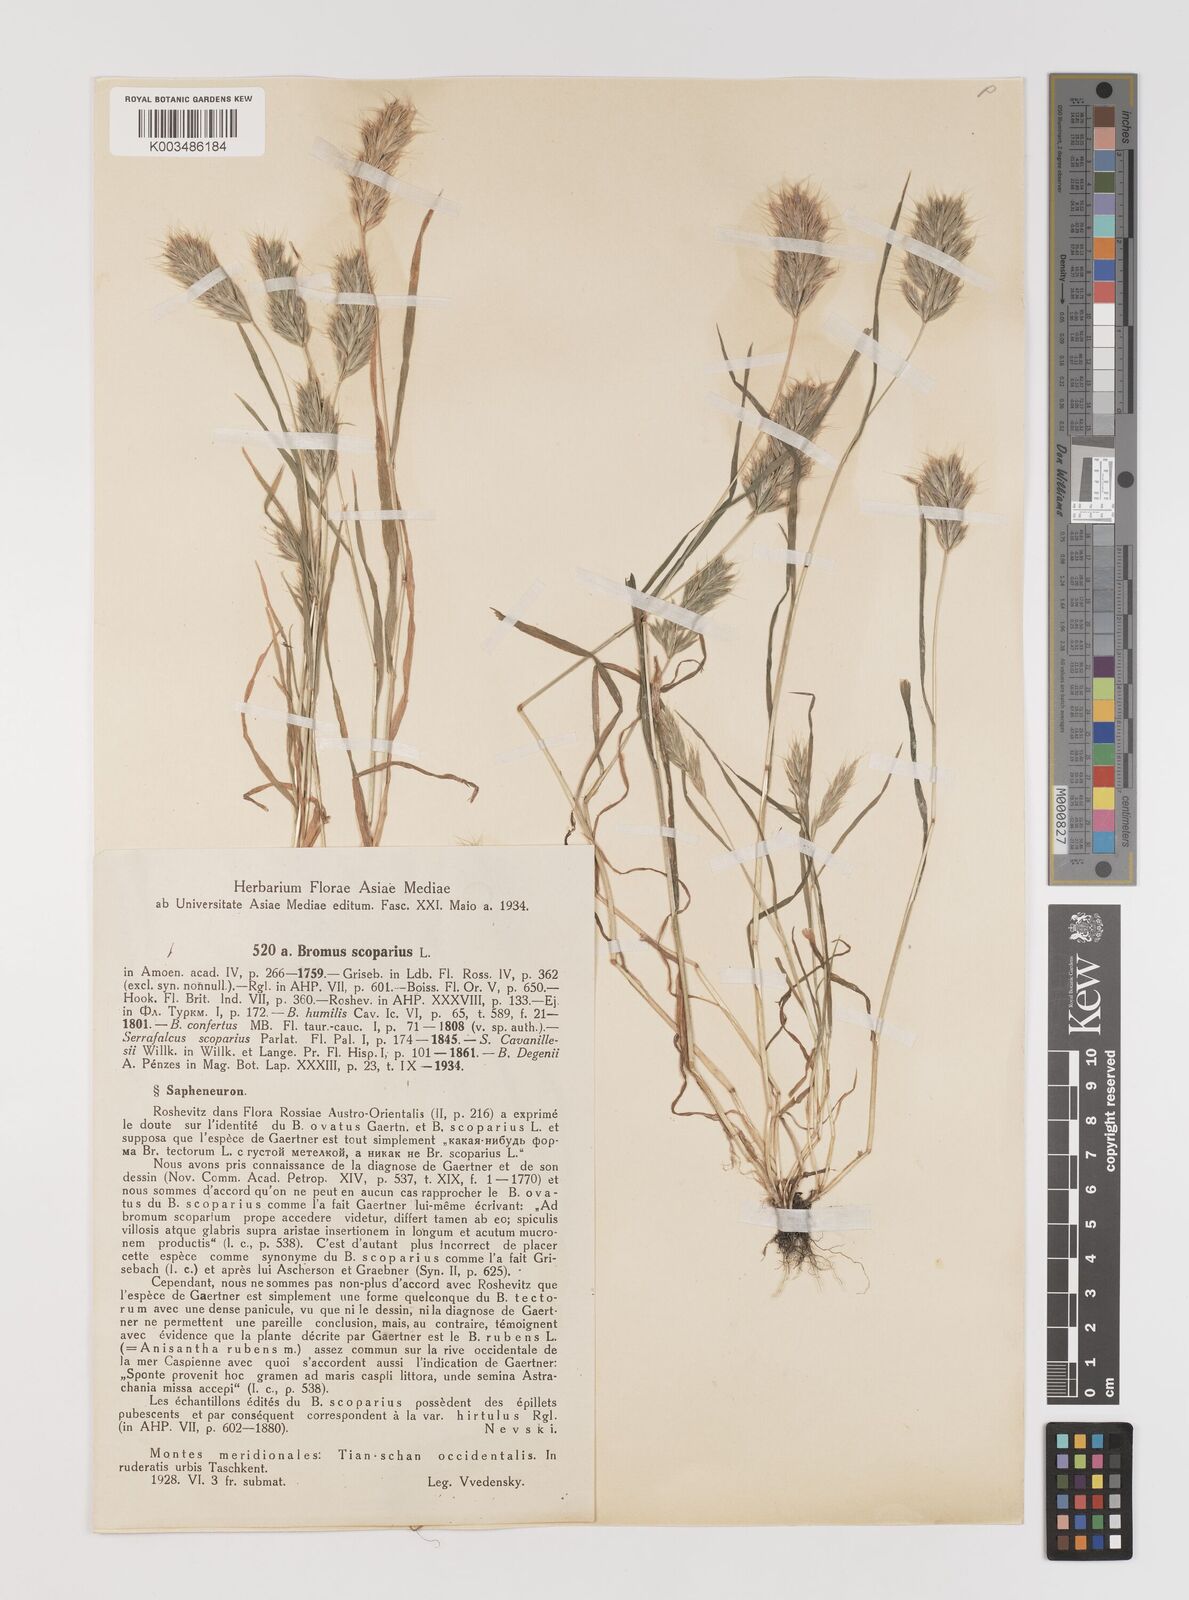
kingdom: Plantae
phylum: Tracheophyta
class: Liliopsida
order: Poales
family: Poaceae
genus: Bromus
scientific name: Bromus scoparius
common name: Broom brome
